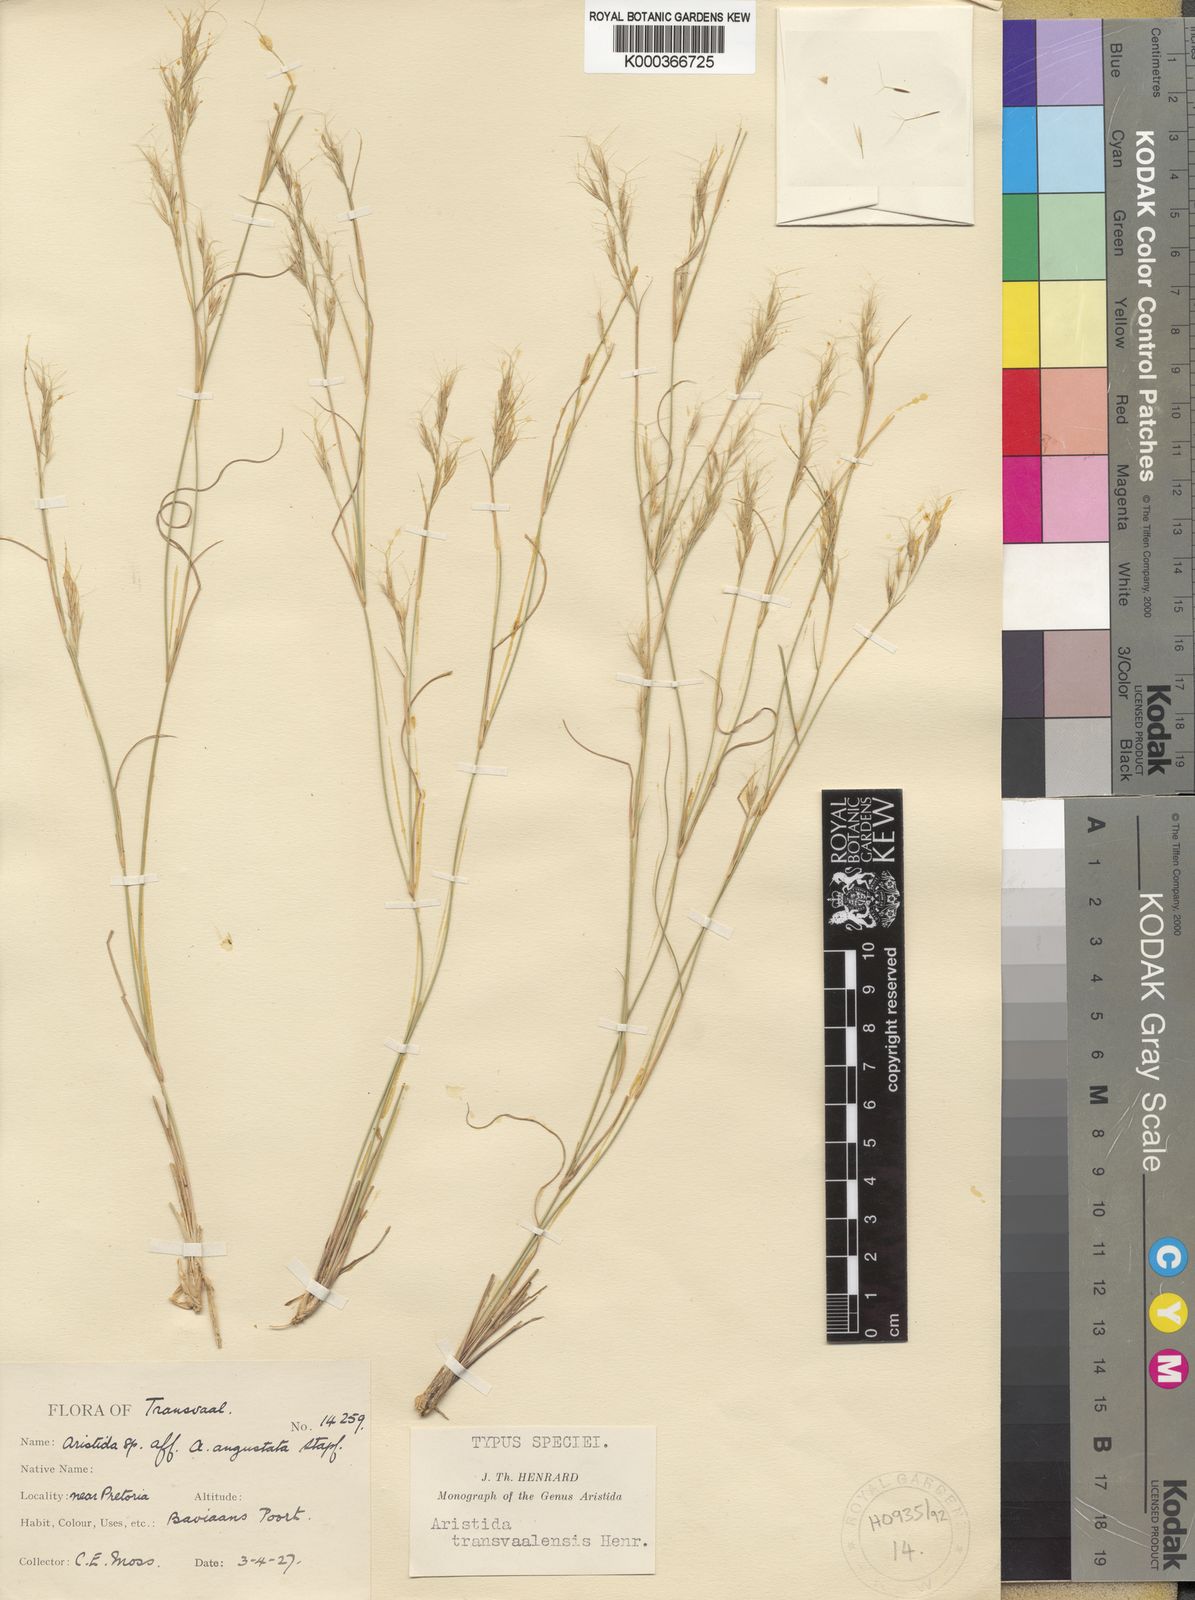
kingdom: Plantae
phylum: Tracheophyta
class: Liliopsida
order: Poales
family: Poaceae
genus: Aristida
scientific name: Aristida transvaalensis
